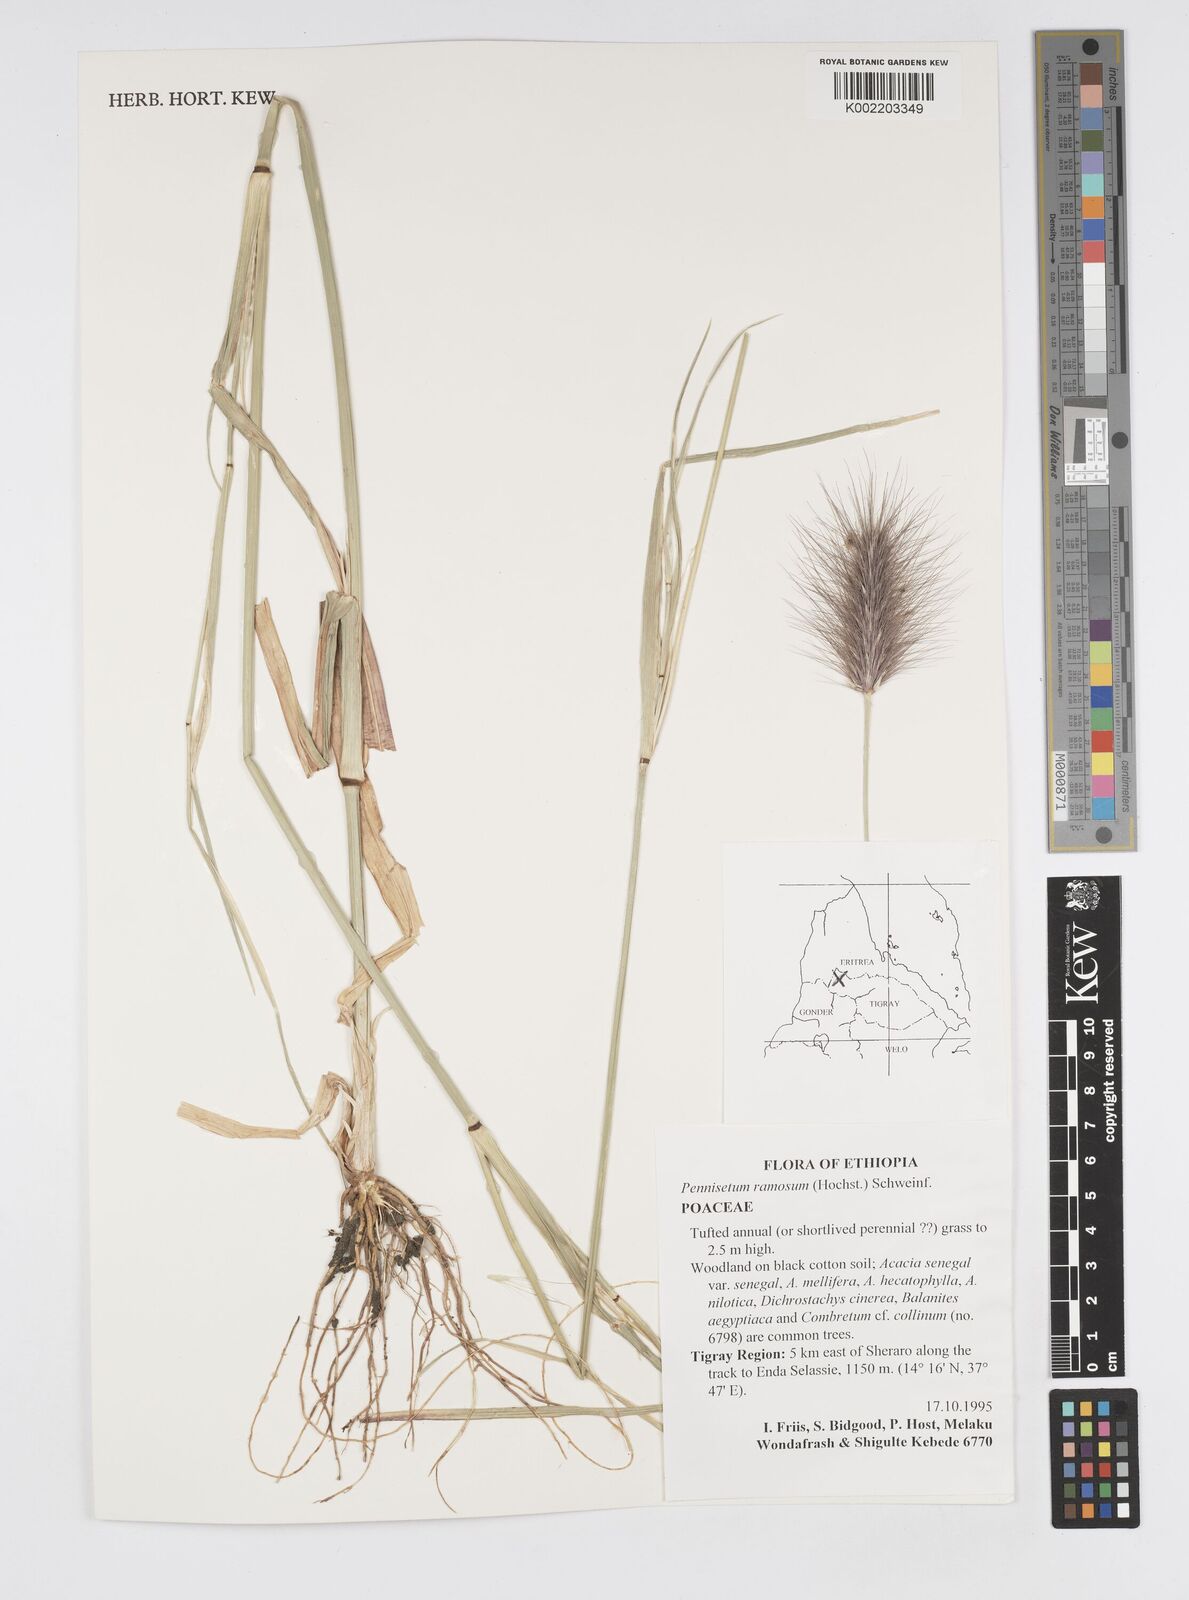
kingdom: Plantae
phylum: Tracheophyta
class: Liliopsida
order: Poales
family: Poaceae
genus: Cenchrus
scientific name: Cenchrus ramosus
